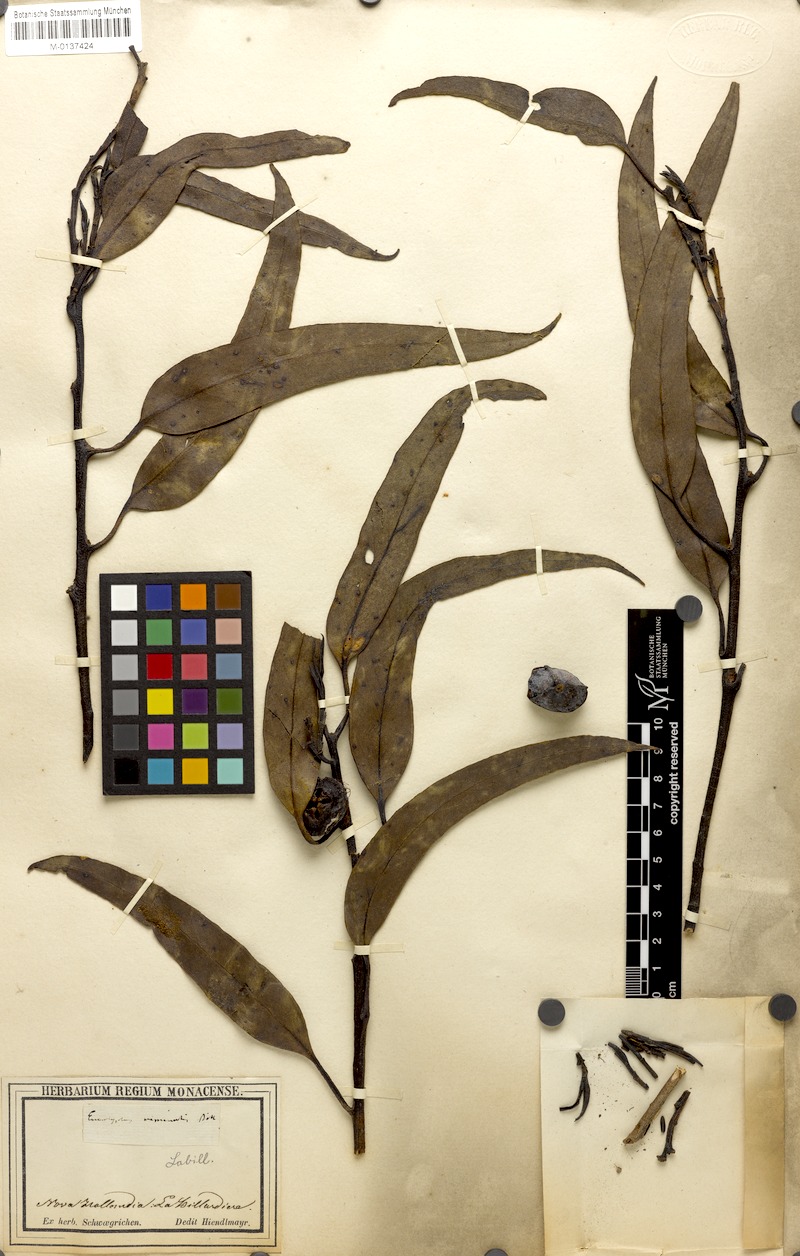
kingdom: Plantae
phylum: Tracheophyta
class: Magnoliopsida
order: Myrtales
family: Myrtaceae
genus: Eucalyptus
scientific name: Eucalyptus viminalis
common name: Manna gum
